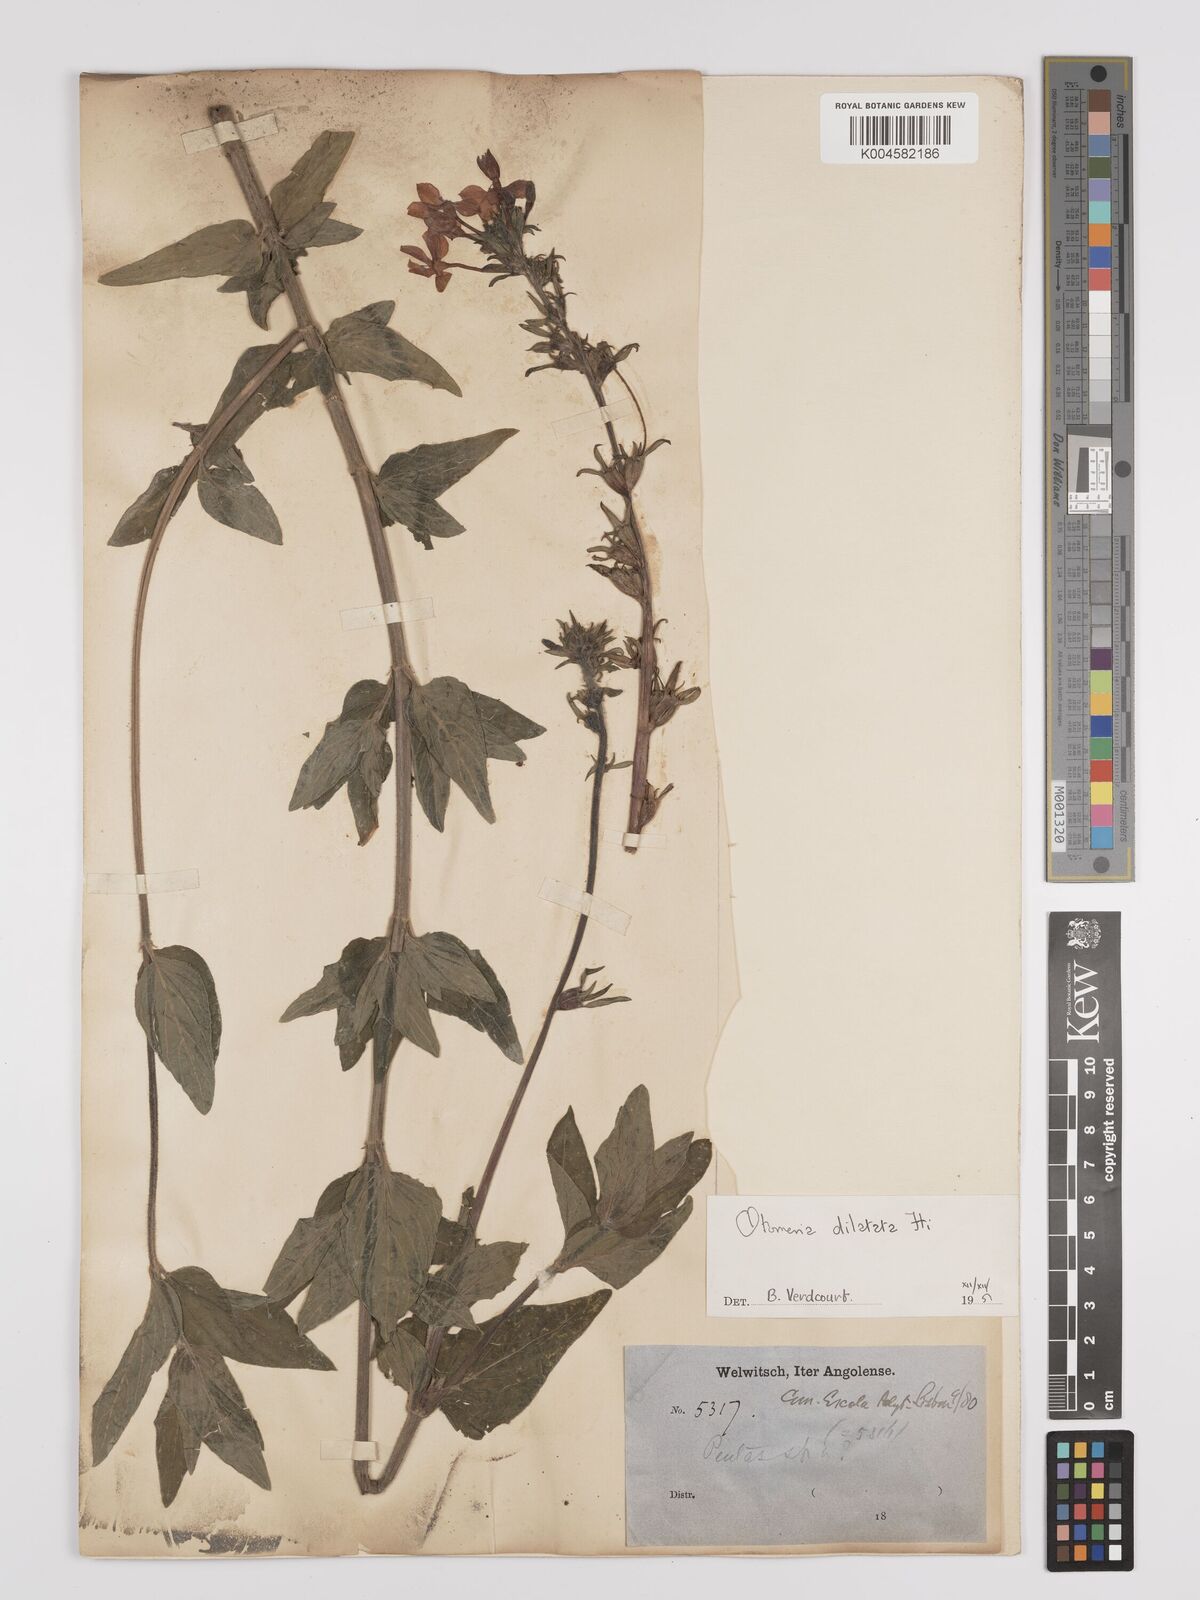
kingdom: Plantae
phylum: Tracheophyta
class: Magnoliopsida
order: Gentianales
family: Rubiaceae
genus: Otomeria
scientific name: Otomeria elatior
